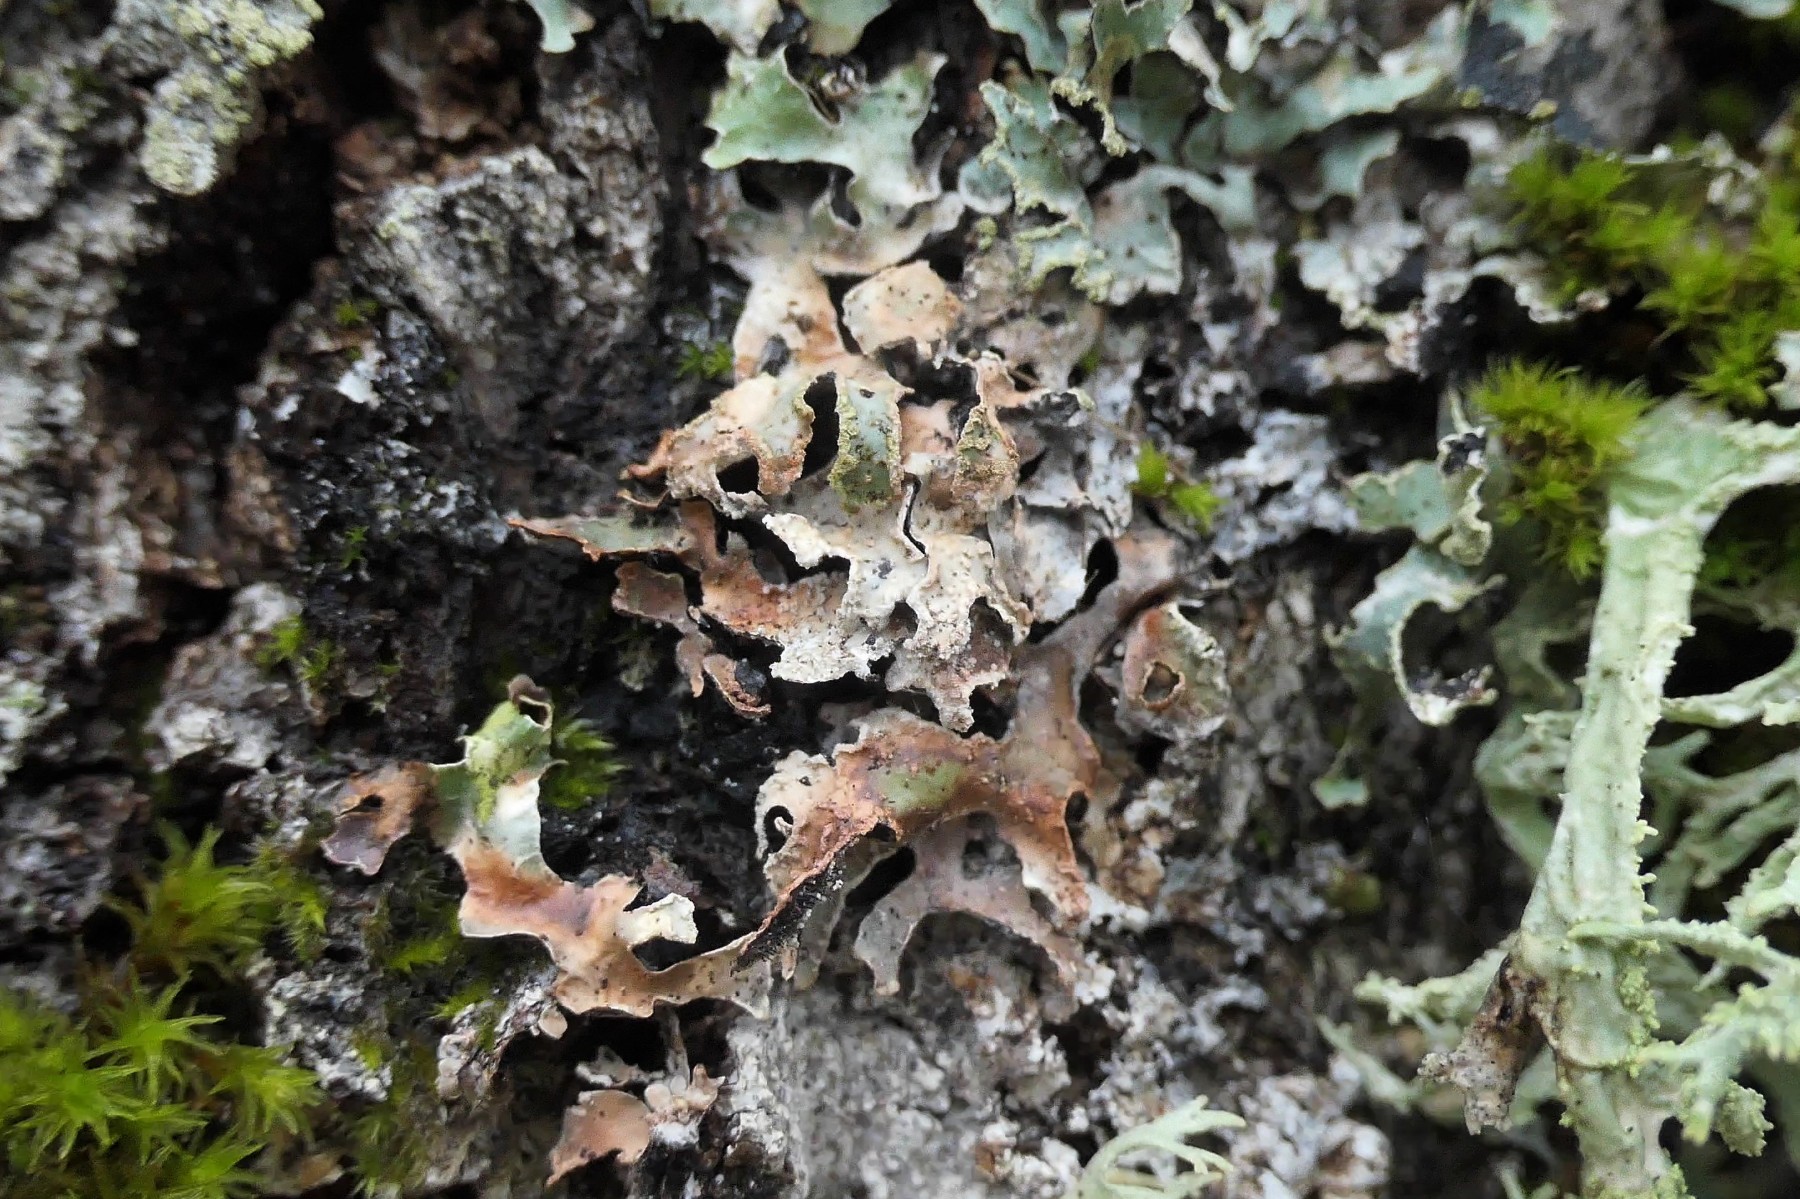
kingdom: Fungi
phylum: Ascomycota
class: Lecanoromycetes
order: Lecanorales
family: Parmeliaceae
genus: Parmelia
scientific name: Parmelia sulcata
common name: rynket skållav
